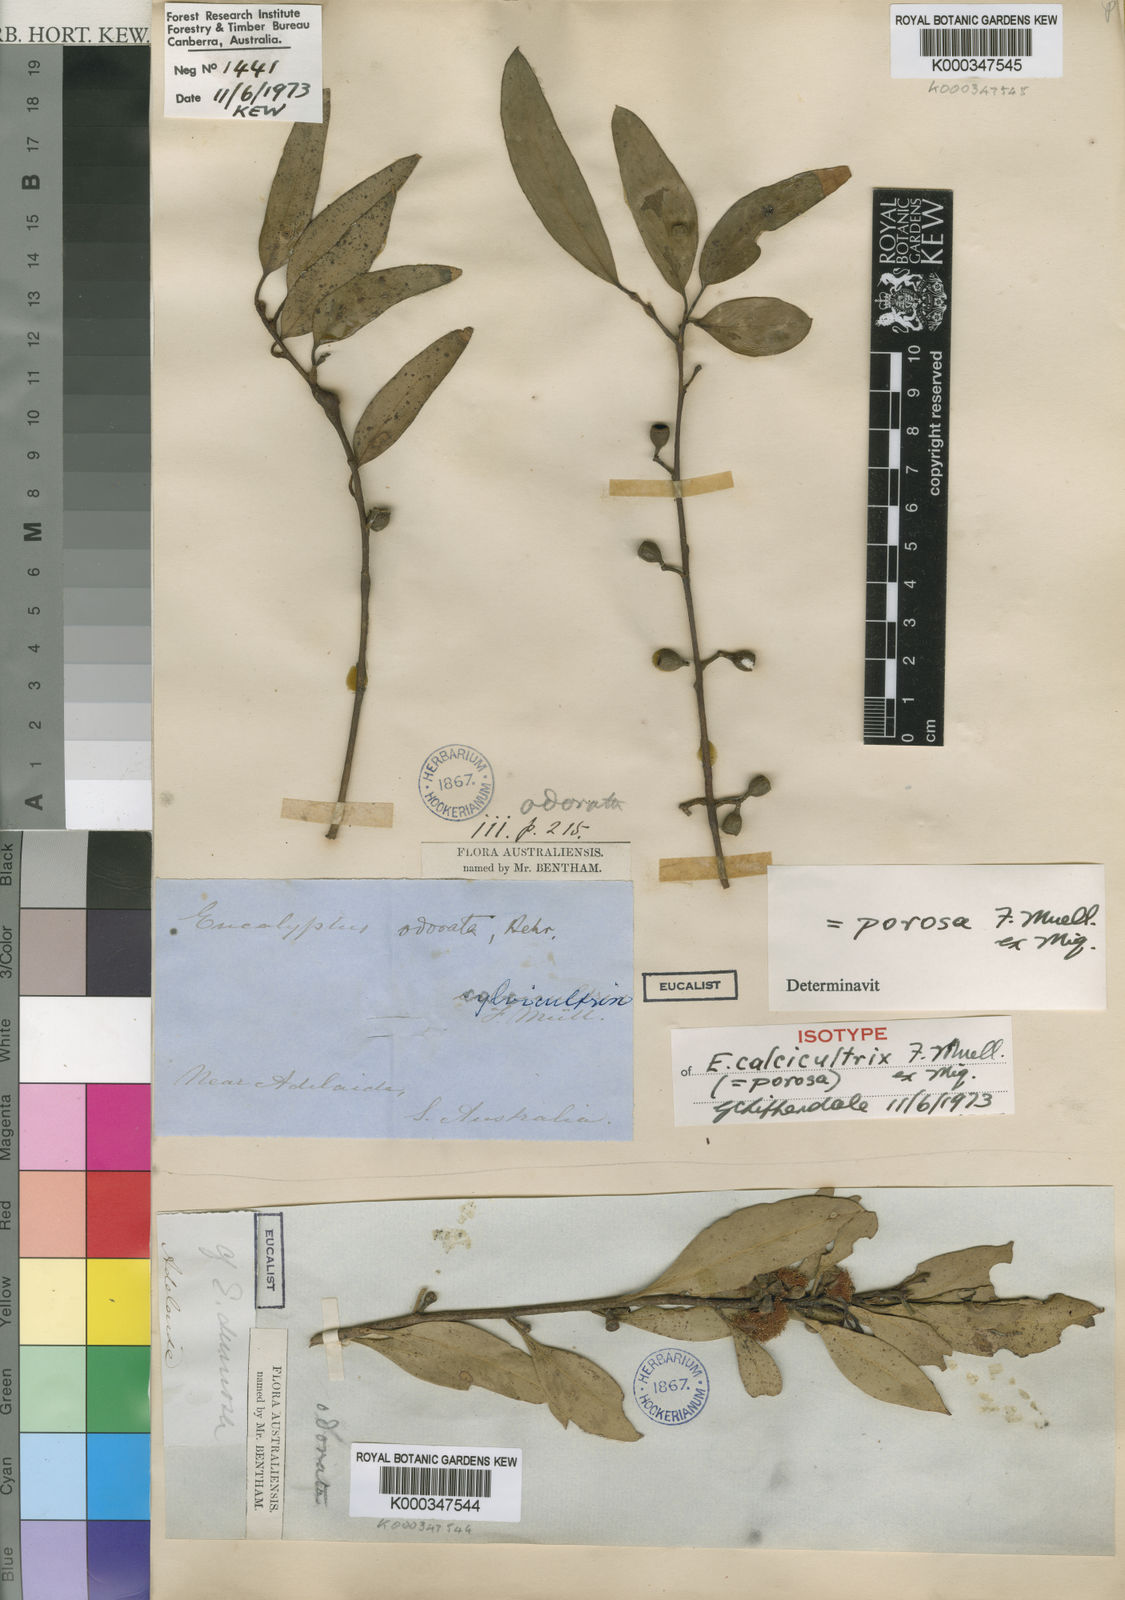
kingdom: Plantae
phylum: Tracheophyta
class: Magnoliopsida
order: Myrtales
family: Myrtaceae
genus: Eucalyptus
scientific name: Eucalyptus porosa
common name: Quorn mallee
